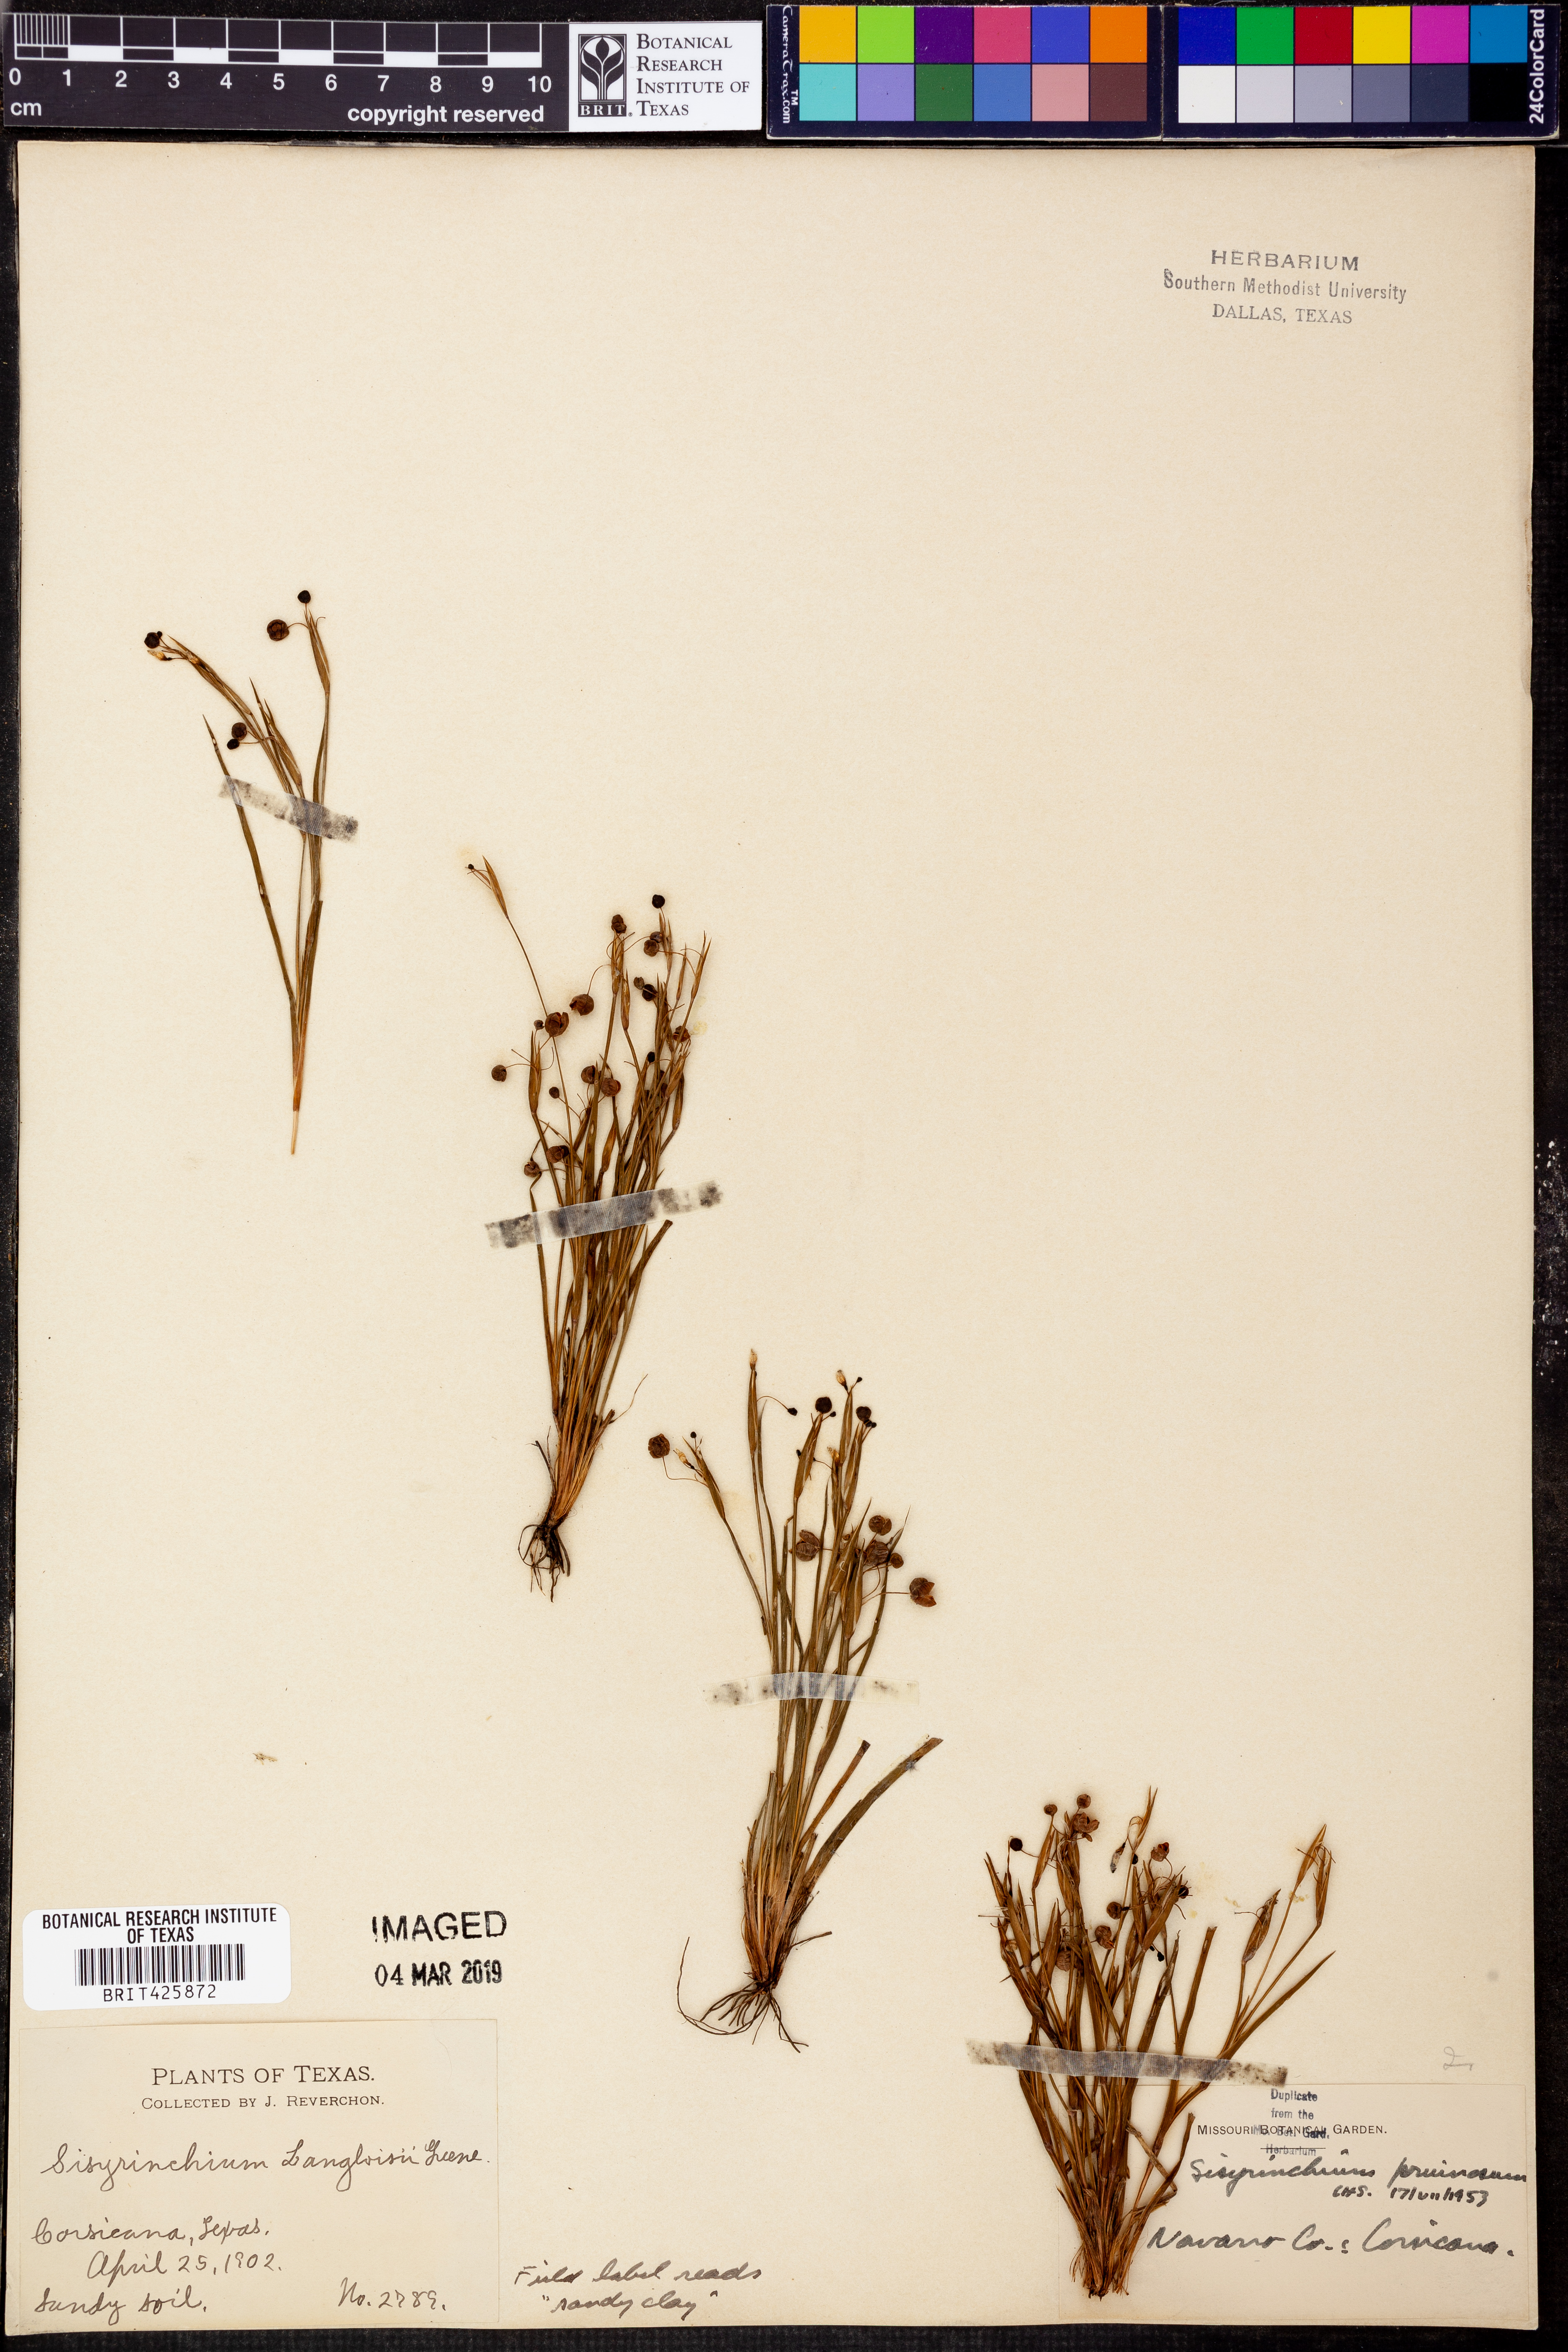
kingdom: Plantae
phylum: Tracheophyta
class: Liliopsida
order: Asparagales
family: Iridaceae
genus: Sisyrinchium
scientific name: Sisyrinchium pruinosum
